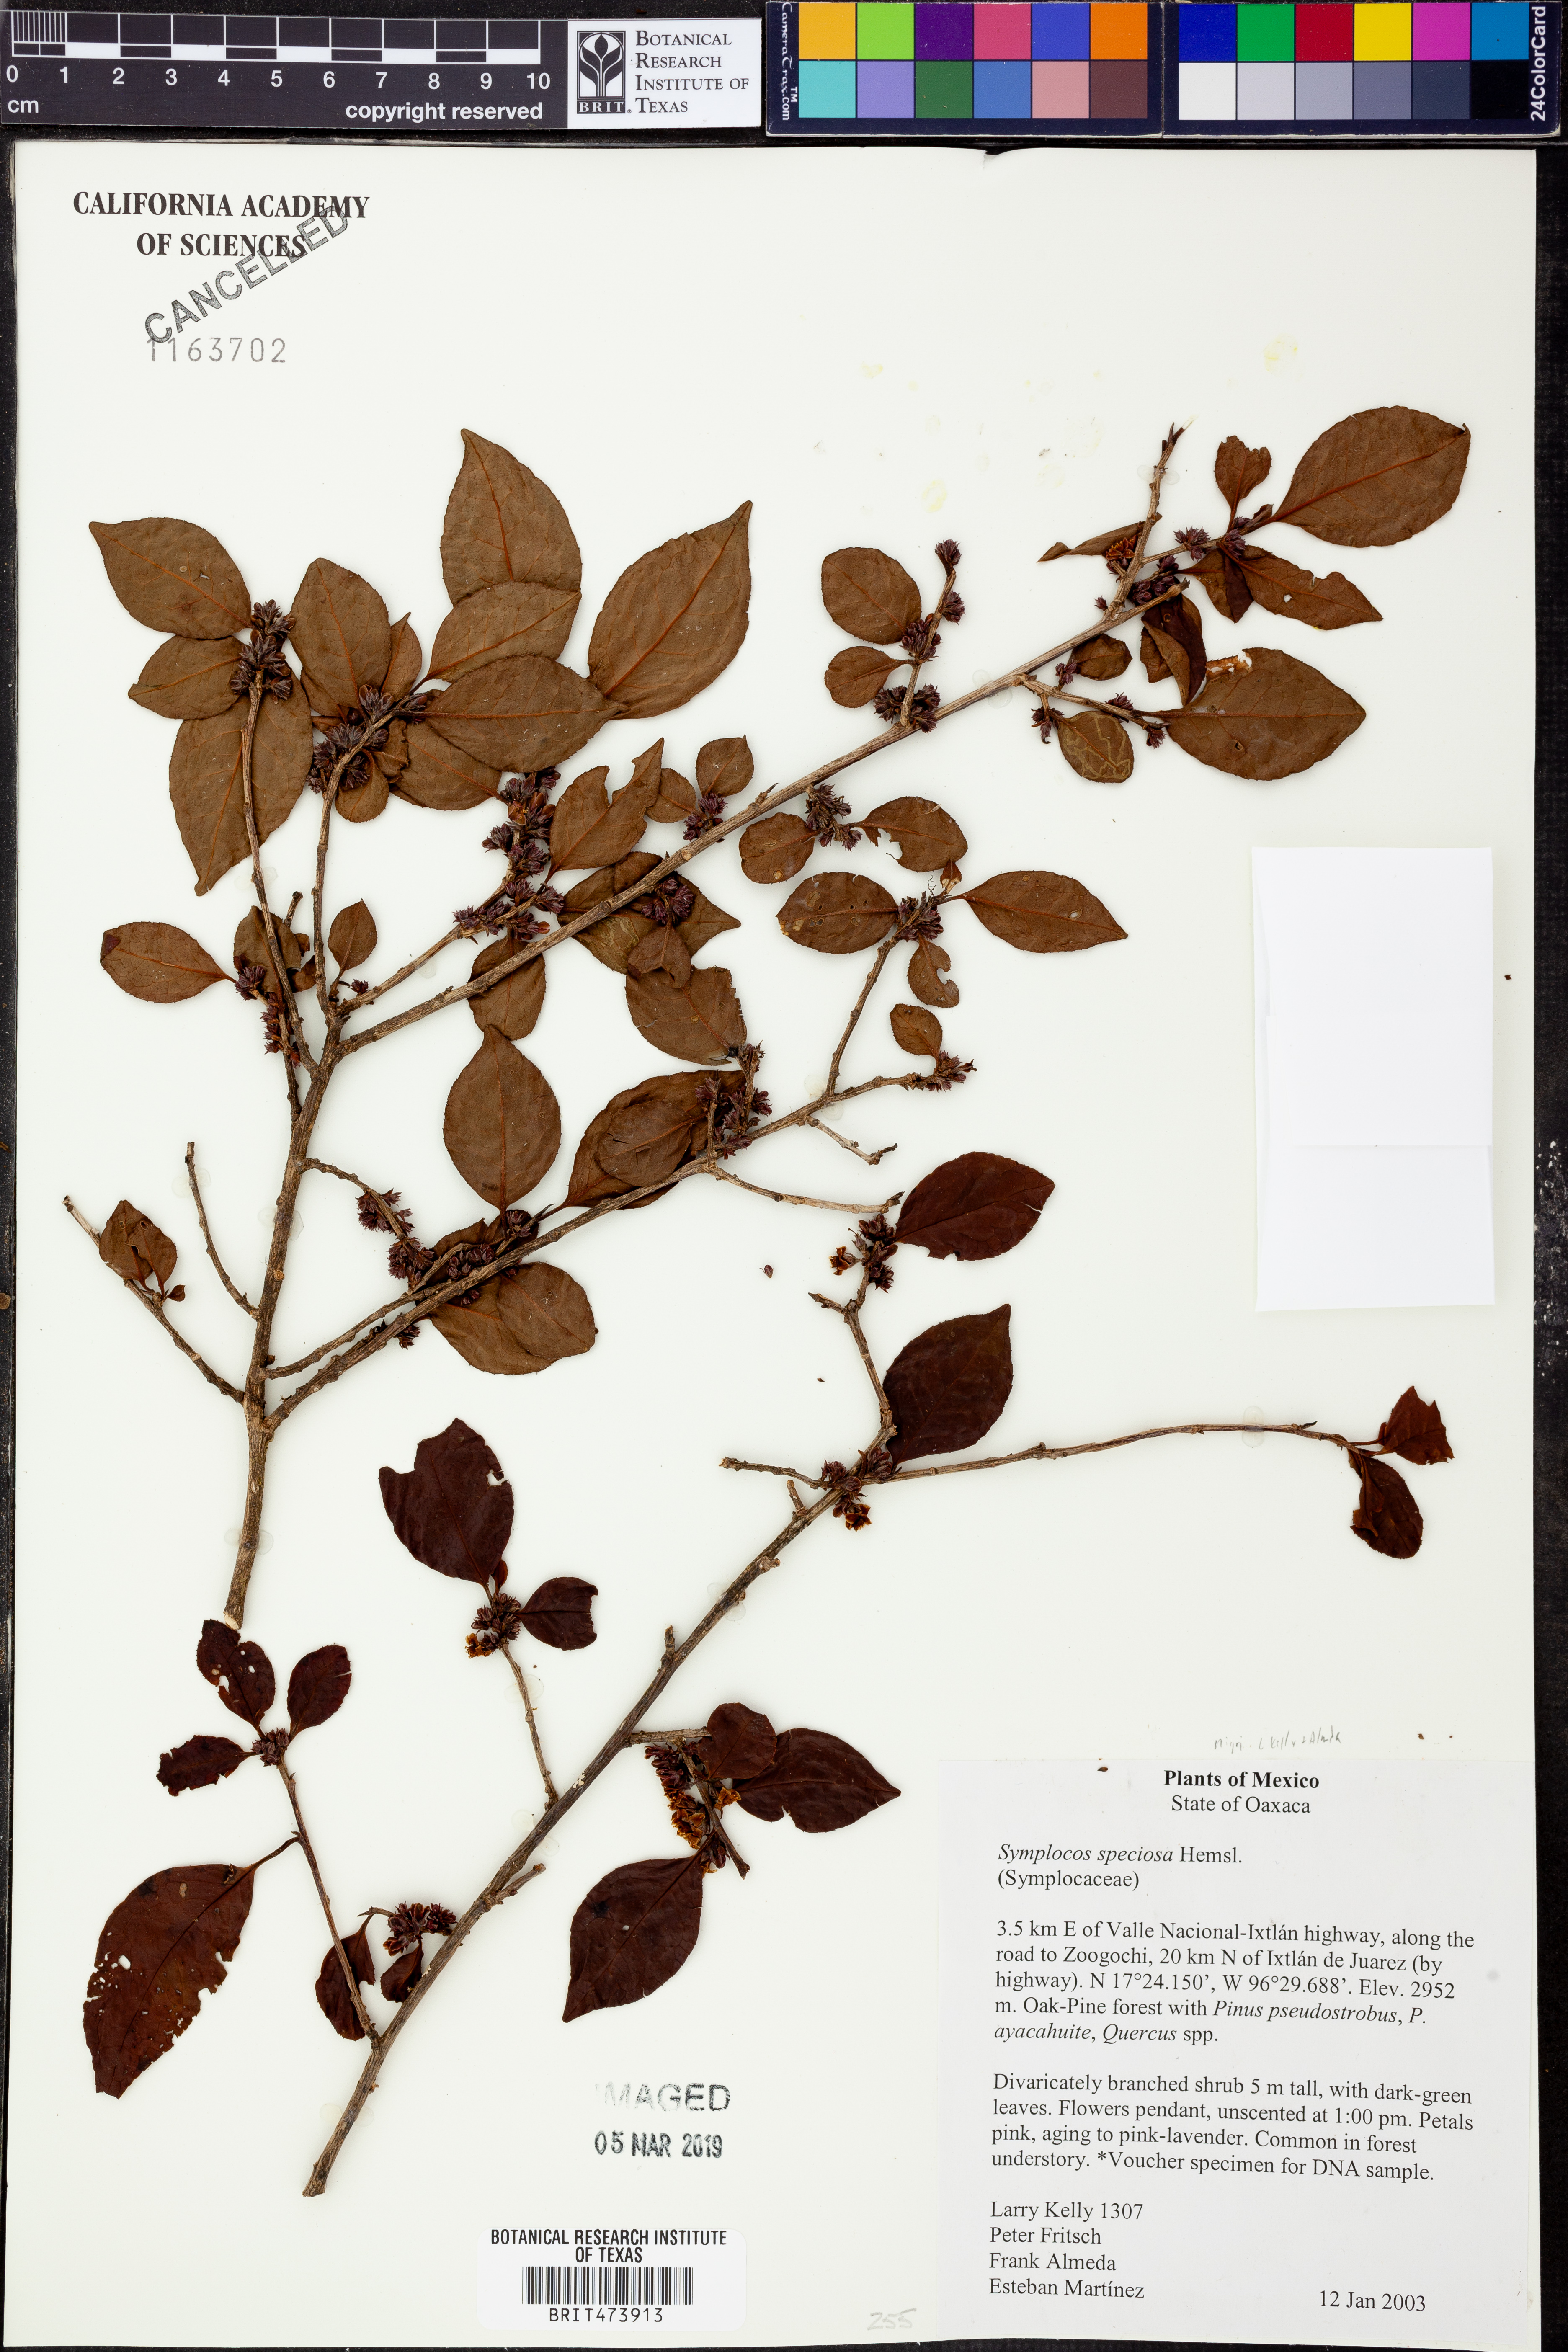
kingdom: Plantae
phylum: Tracheophyta
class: Magnoliopsida
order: Ericales
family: Symplocaceae
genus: Symplocos
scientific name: Symplocos speciosa
